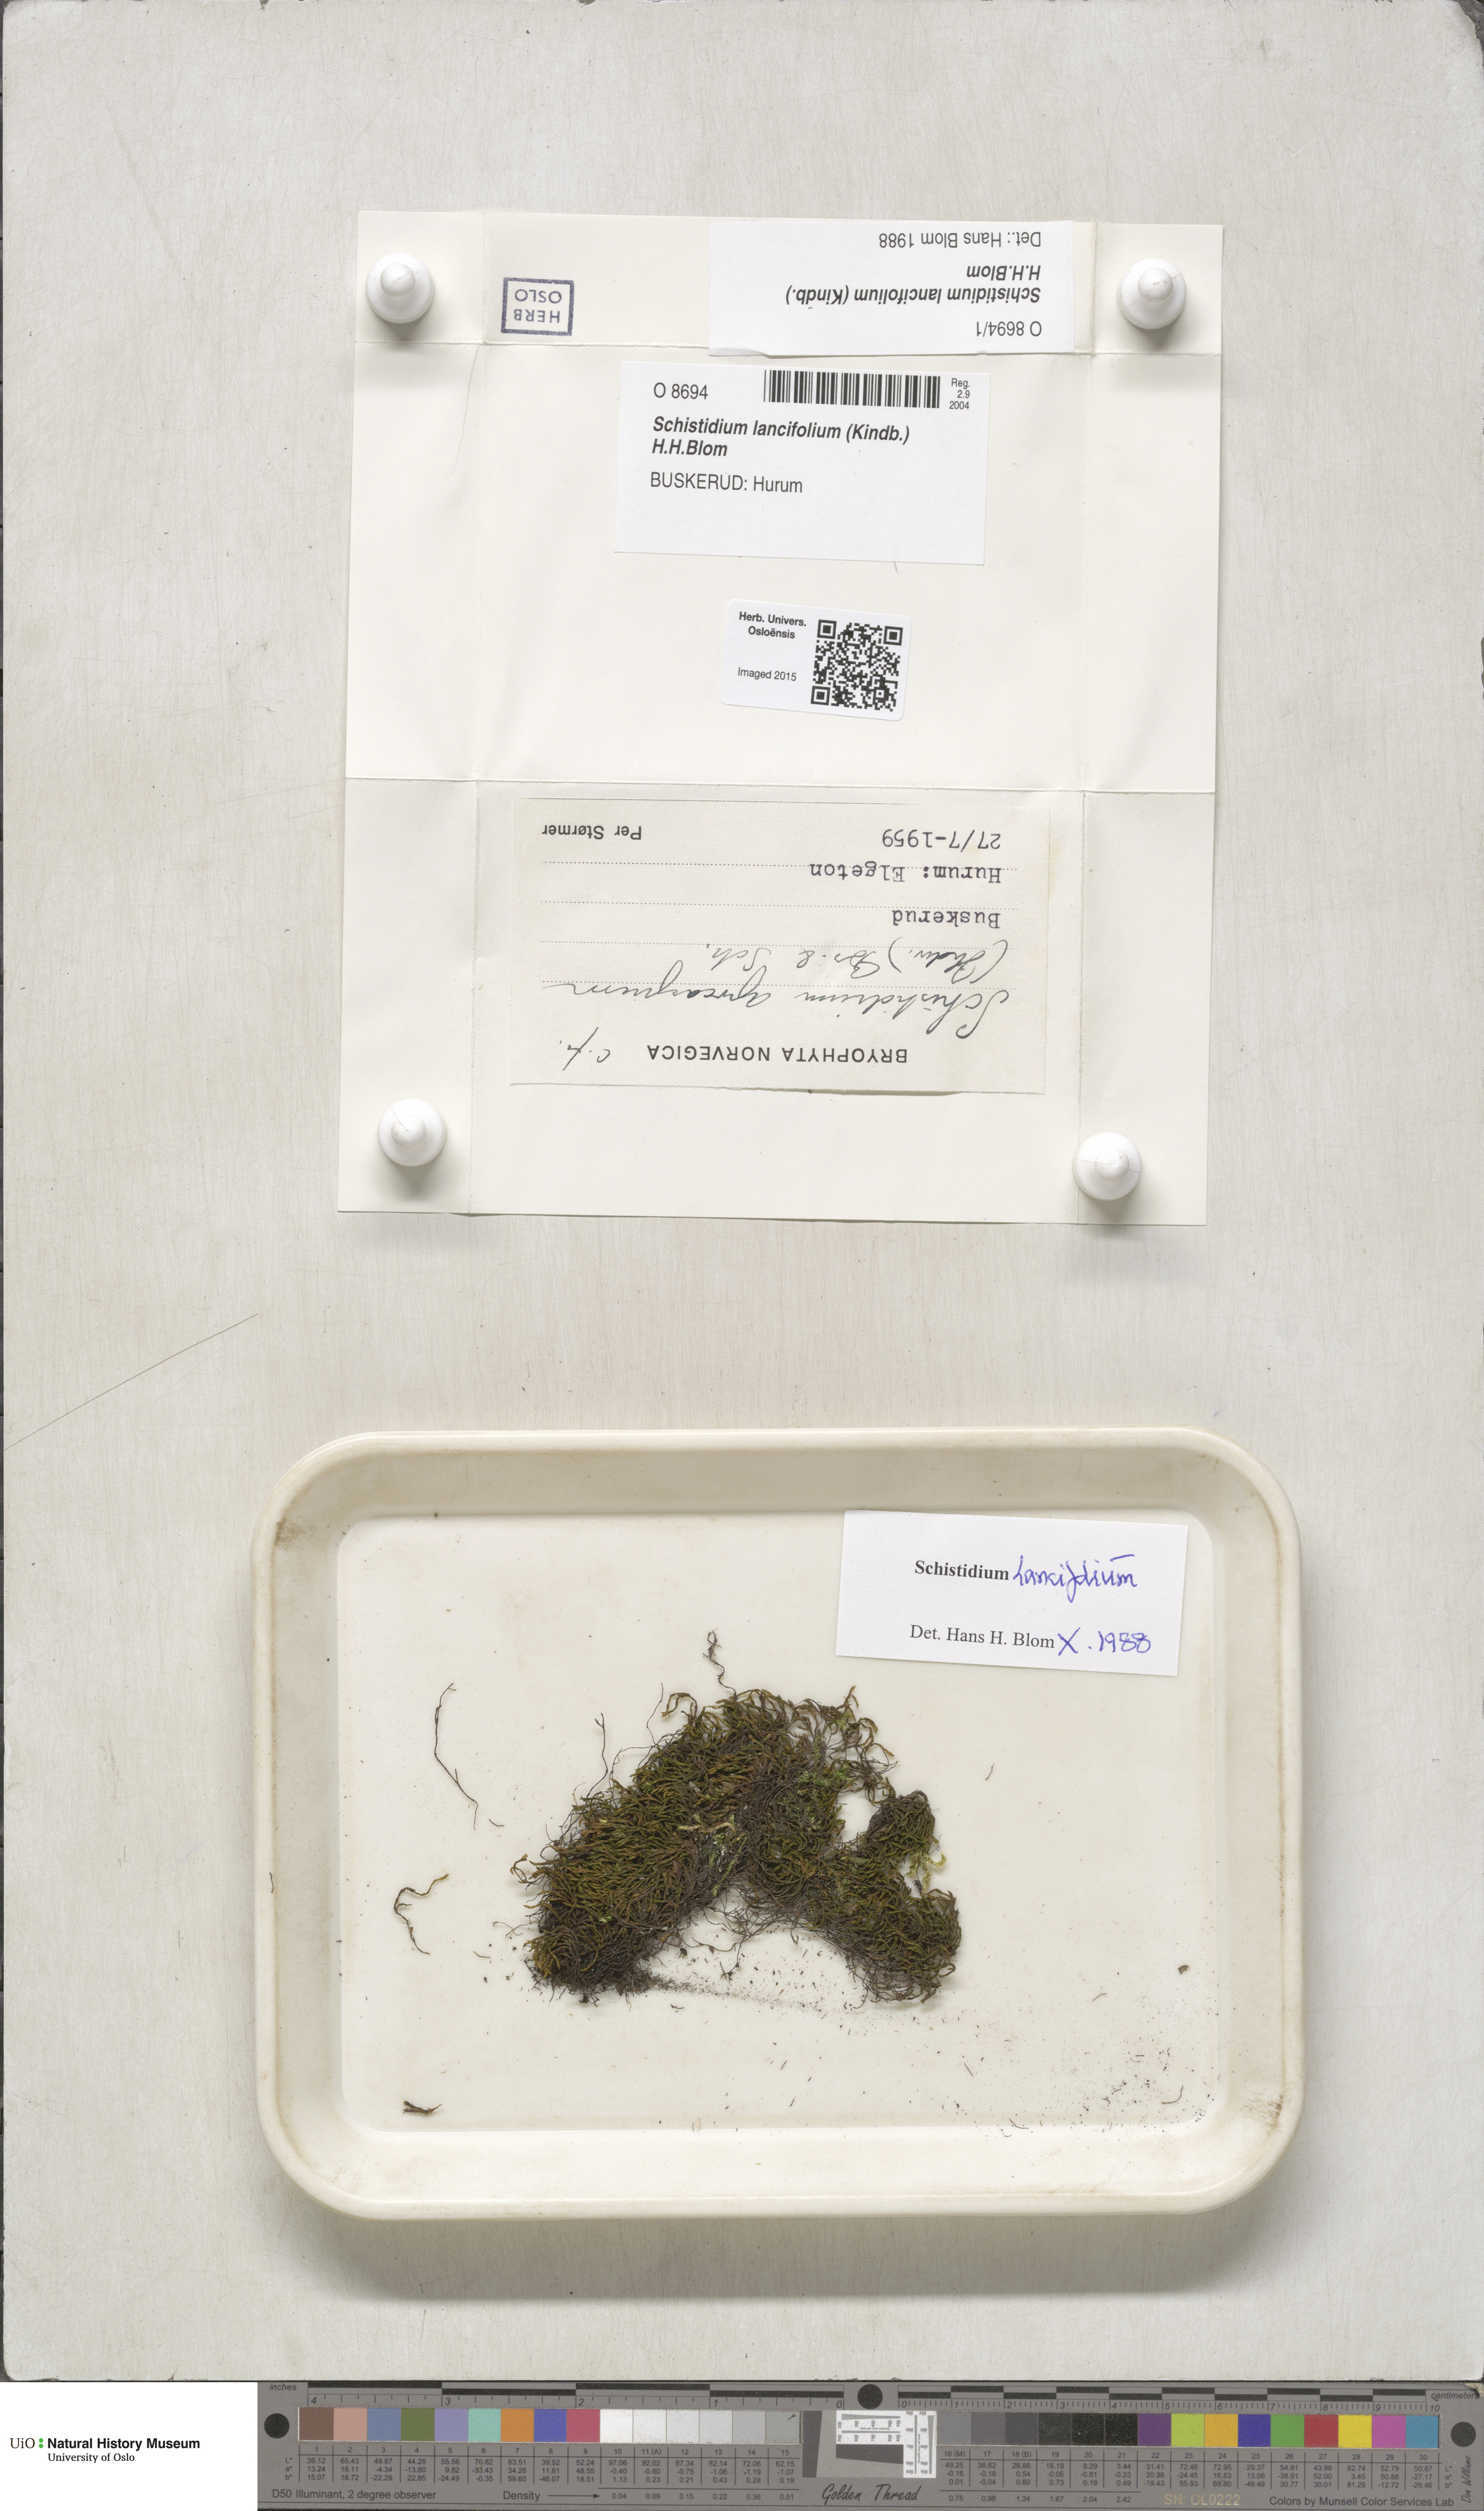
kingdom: Plantae
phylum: Bryophyta
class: Bryopsida
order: Grimmiales
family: Grimmiaceae
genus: Schistidium
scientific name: Schistidium lancifolium
